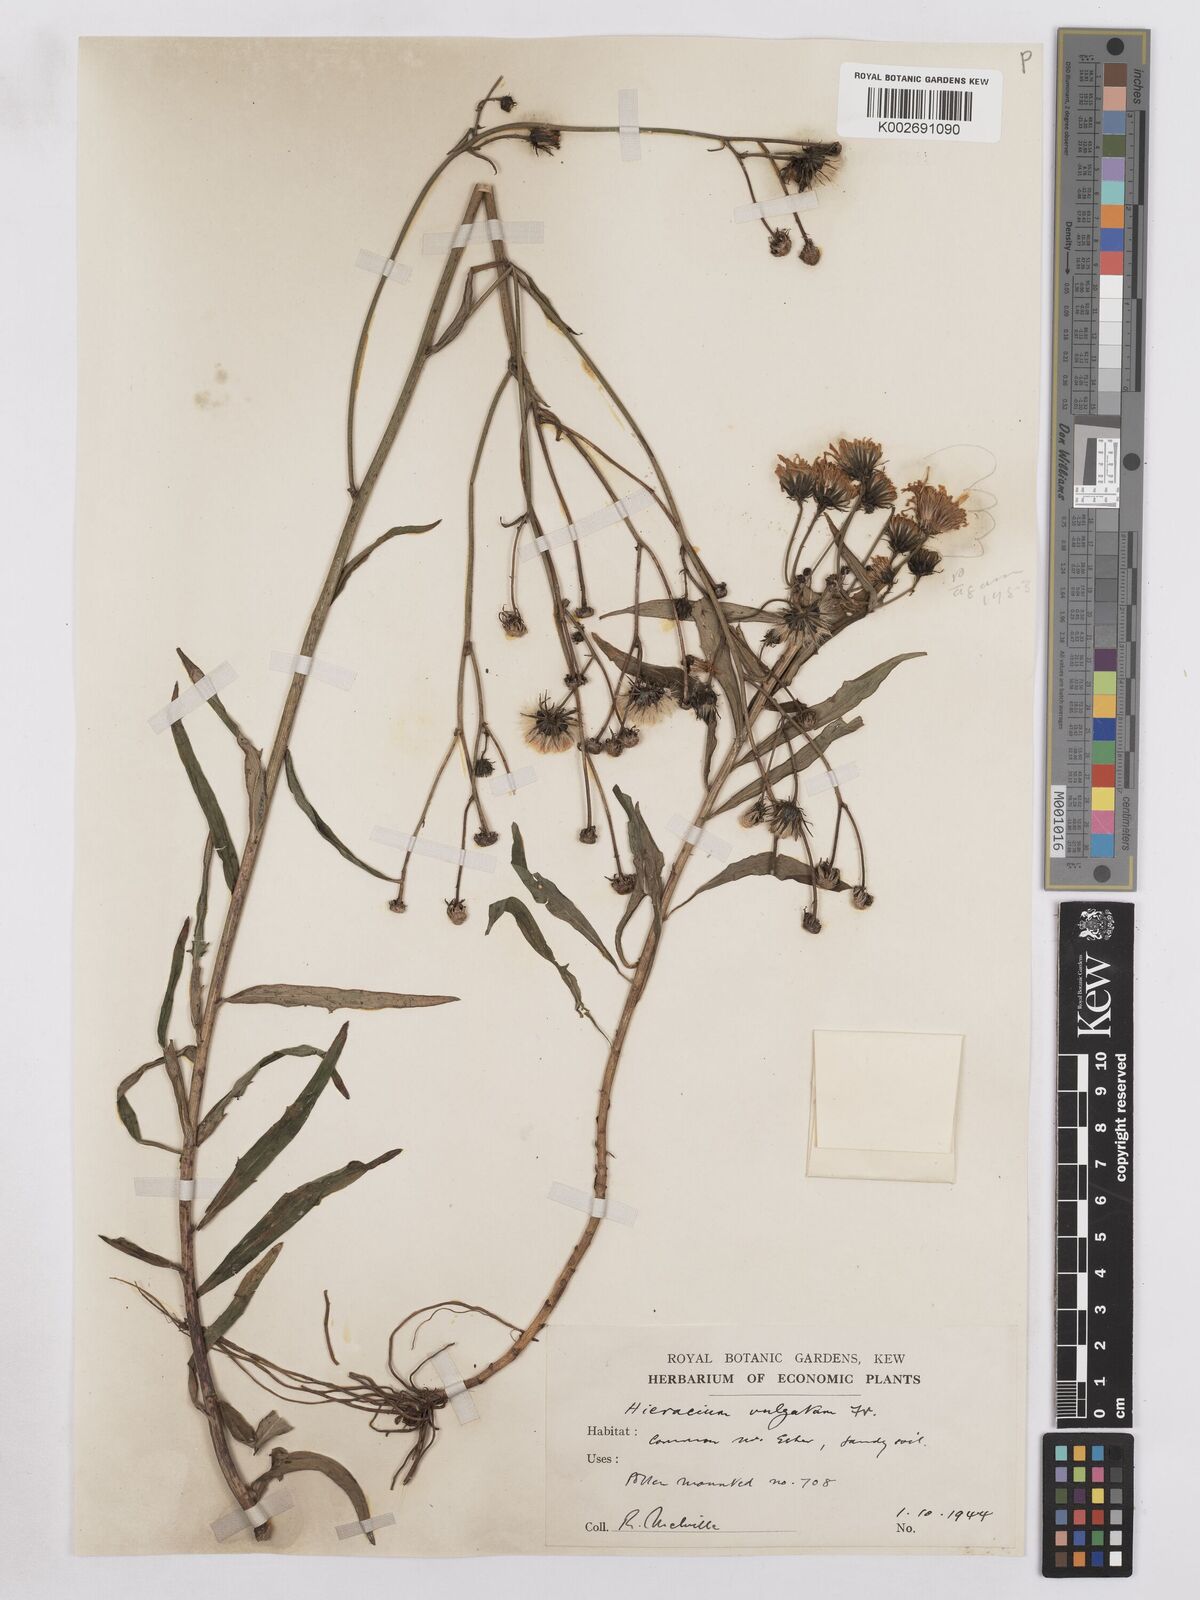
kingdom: Plantae
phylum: Tracheophyta
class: Magnoliopsida
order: Asterales
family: Asteraceae
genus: Hieracium
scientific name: Hieracium lachenalii
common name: Common hawkweed
